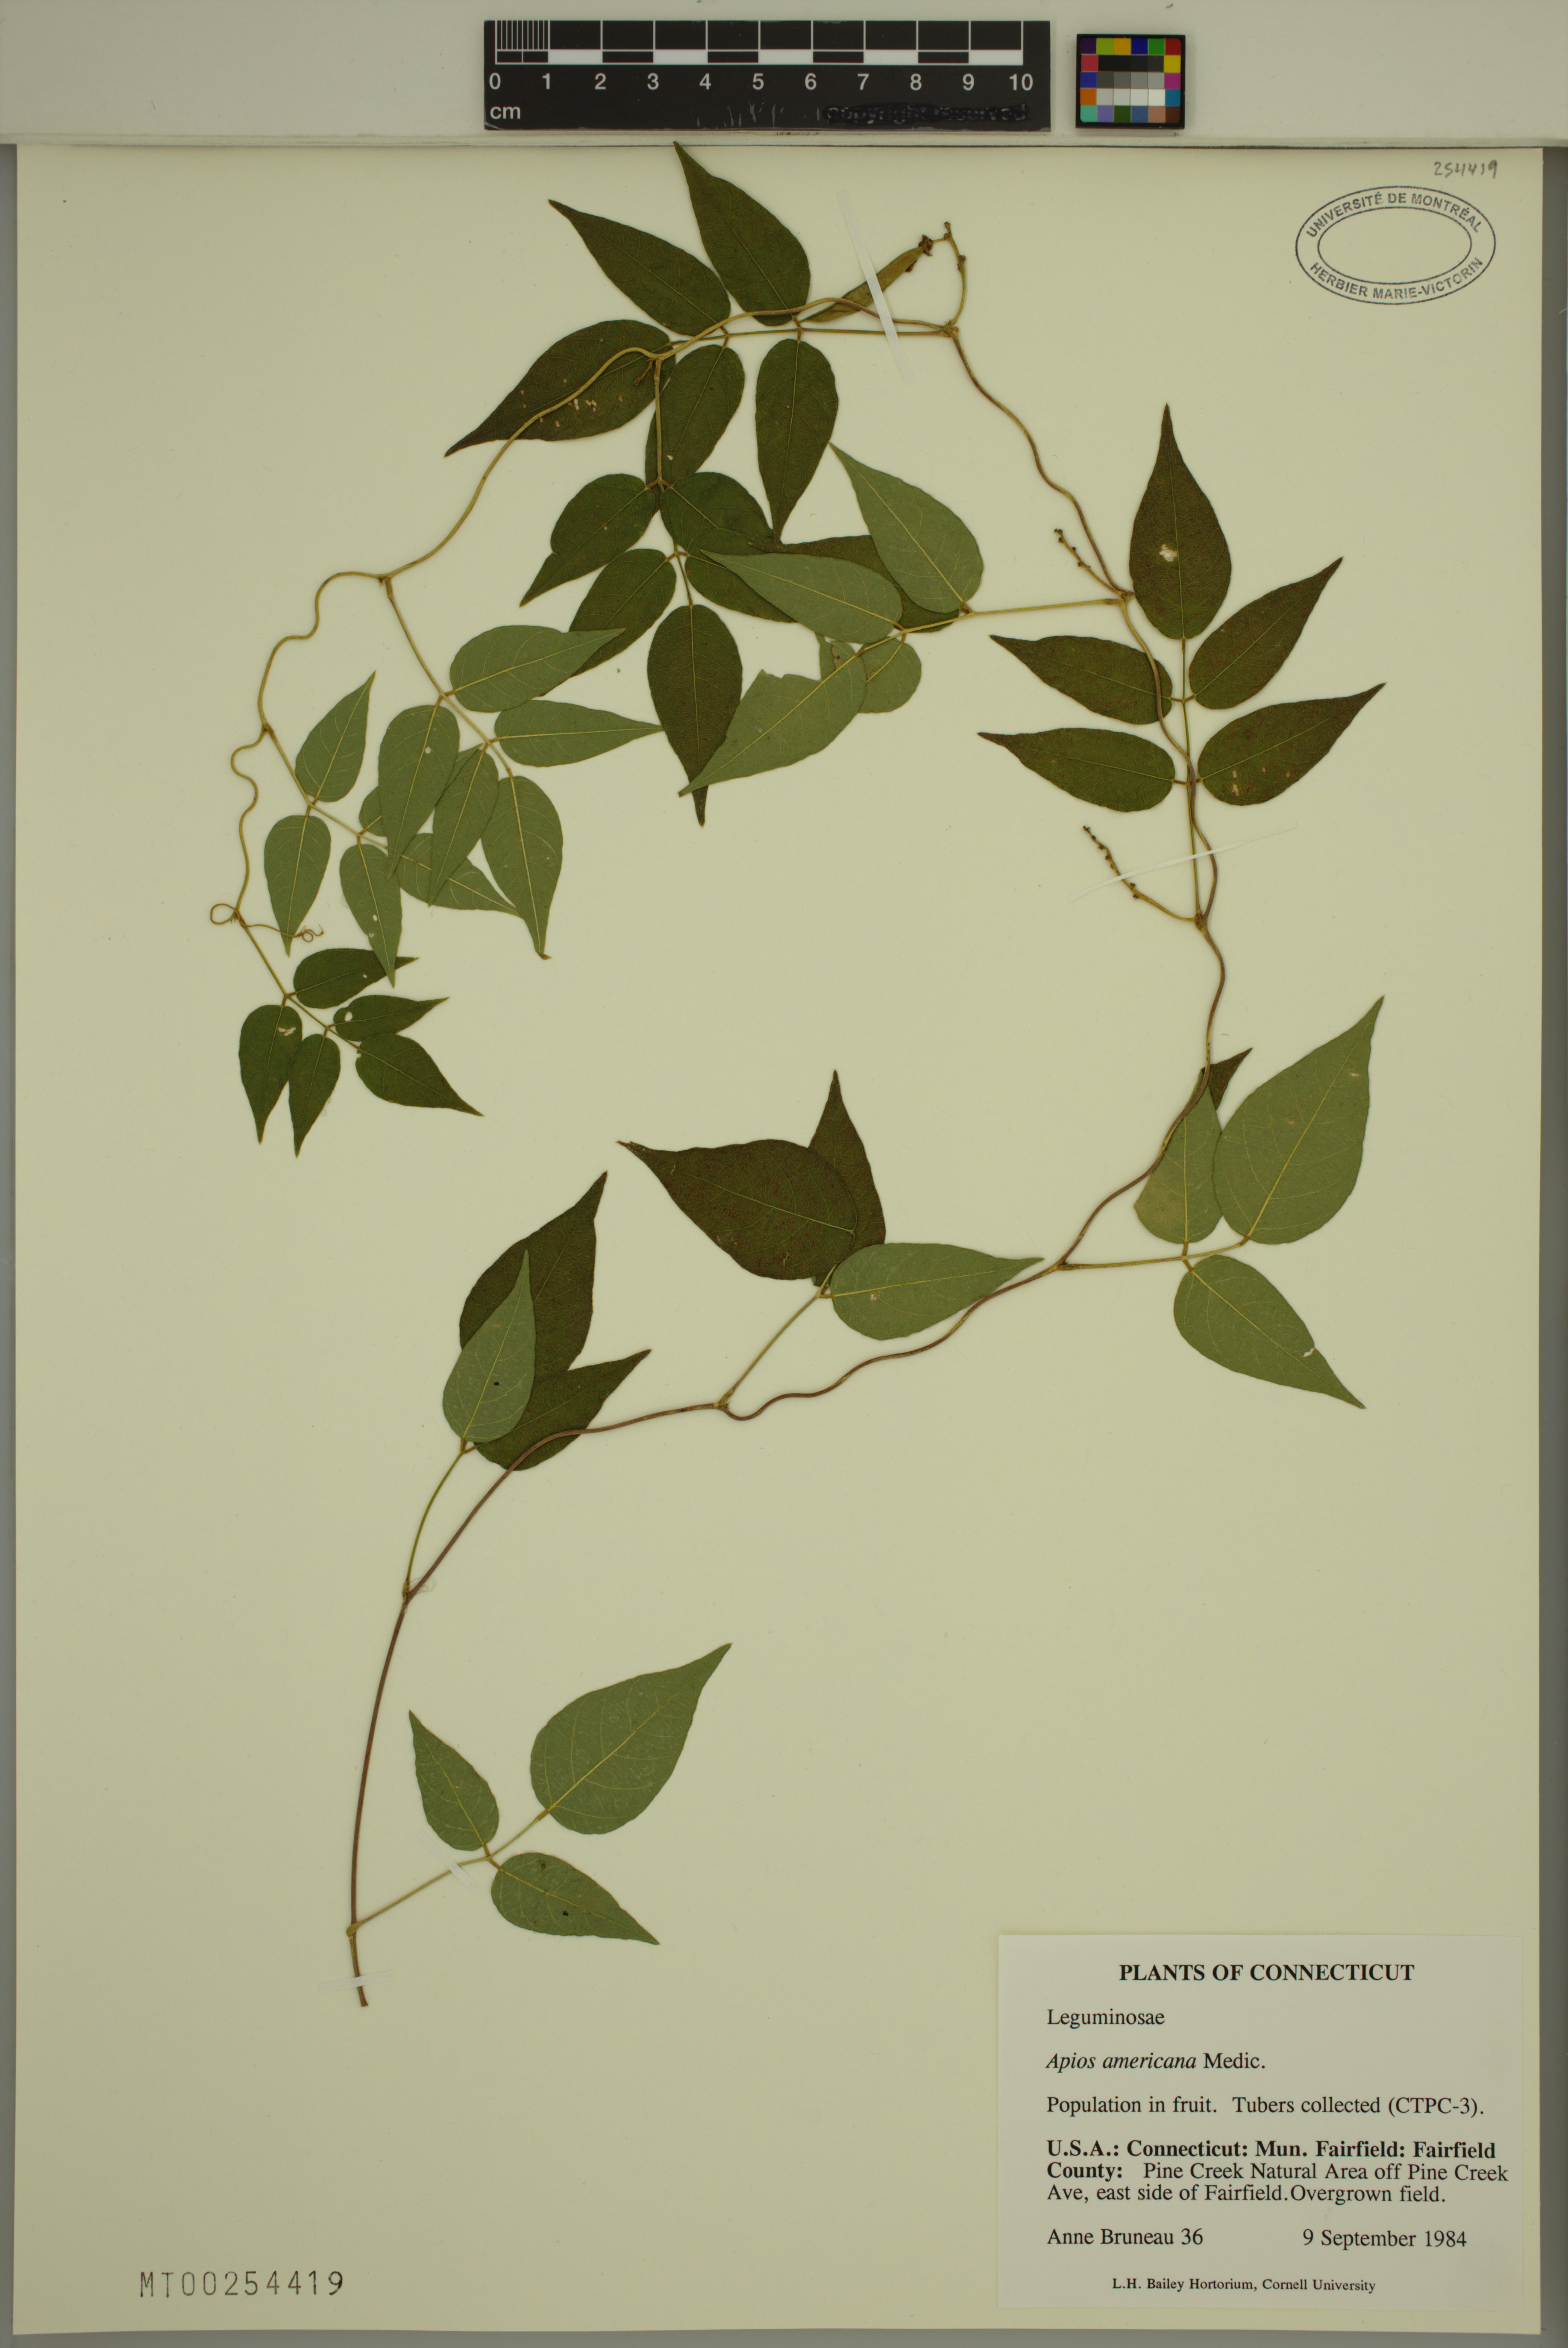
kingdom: Plantae
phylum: Tracheophyta
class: Magnoliopsida
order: Fabales
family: Fabaceae
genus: Apios
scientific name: Apios americana
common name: American potato-bean
